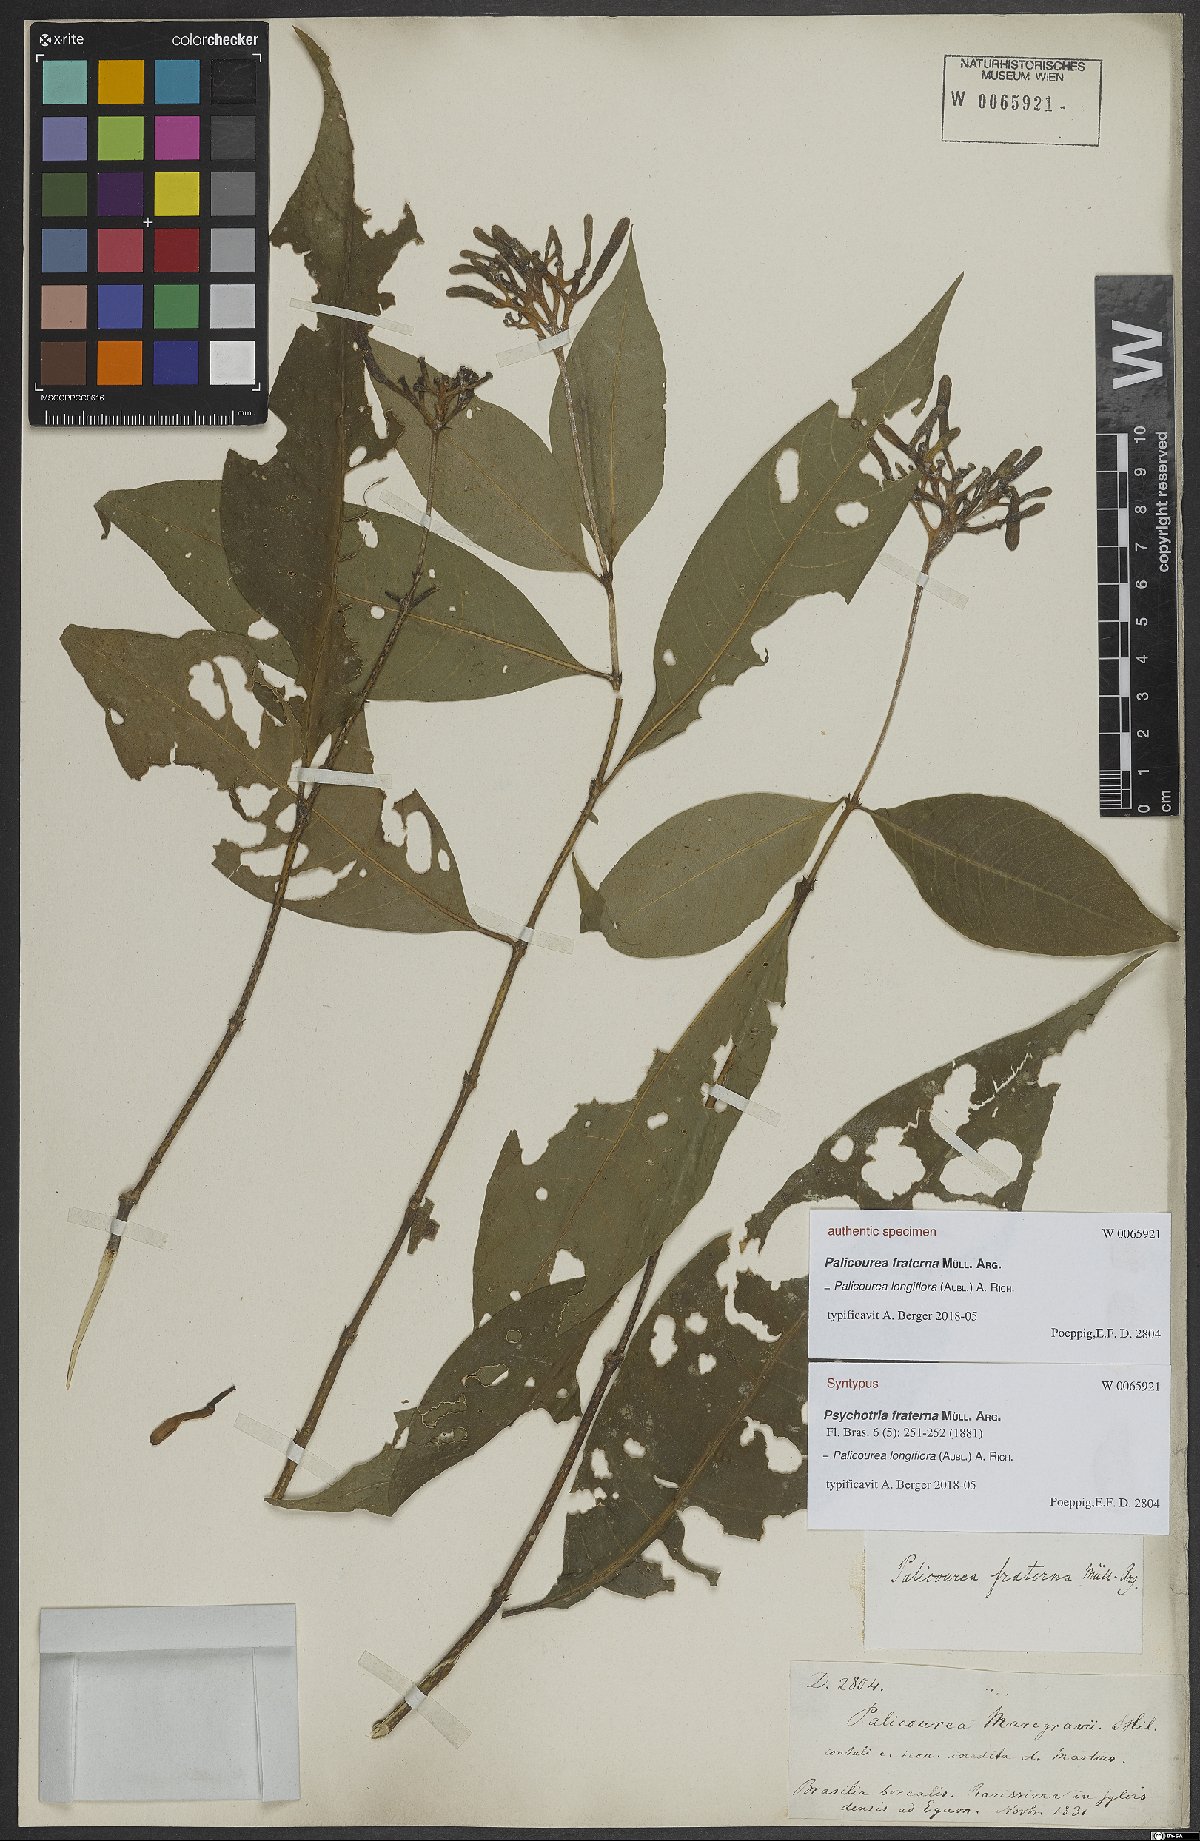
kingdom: Plantae
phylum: Tracheophyta
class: Magnoliopsida
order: Gentianales
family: Rubiaceae
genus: Psychotria
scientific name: Psychotria fraterna
